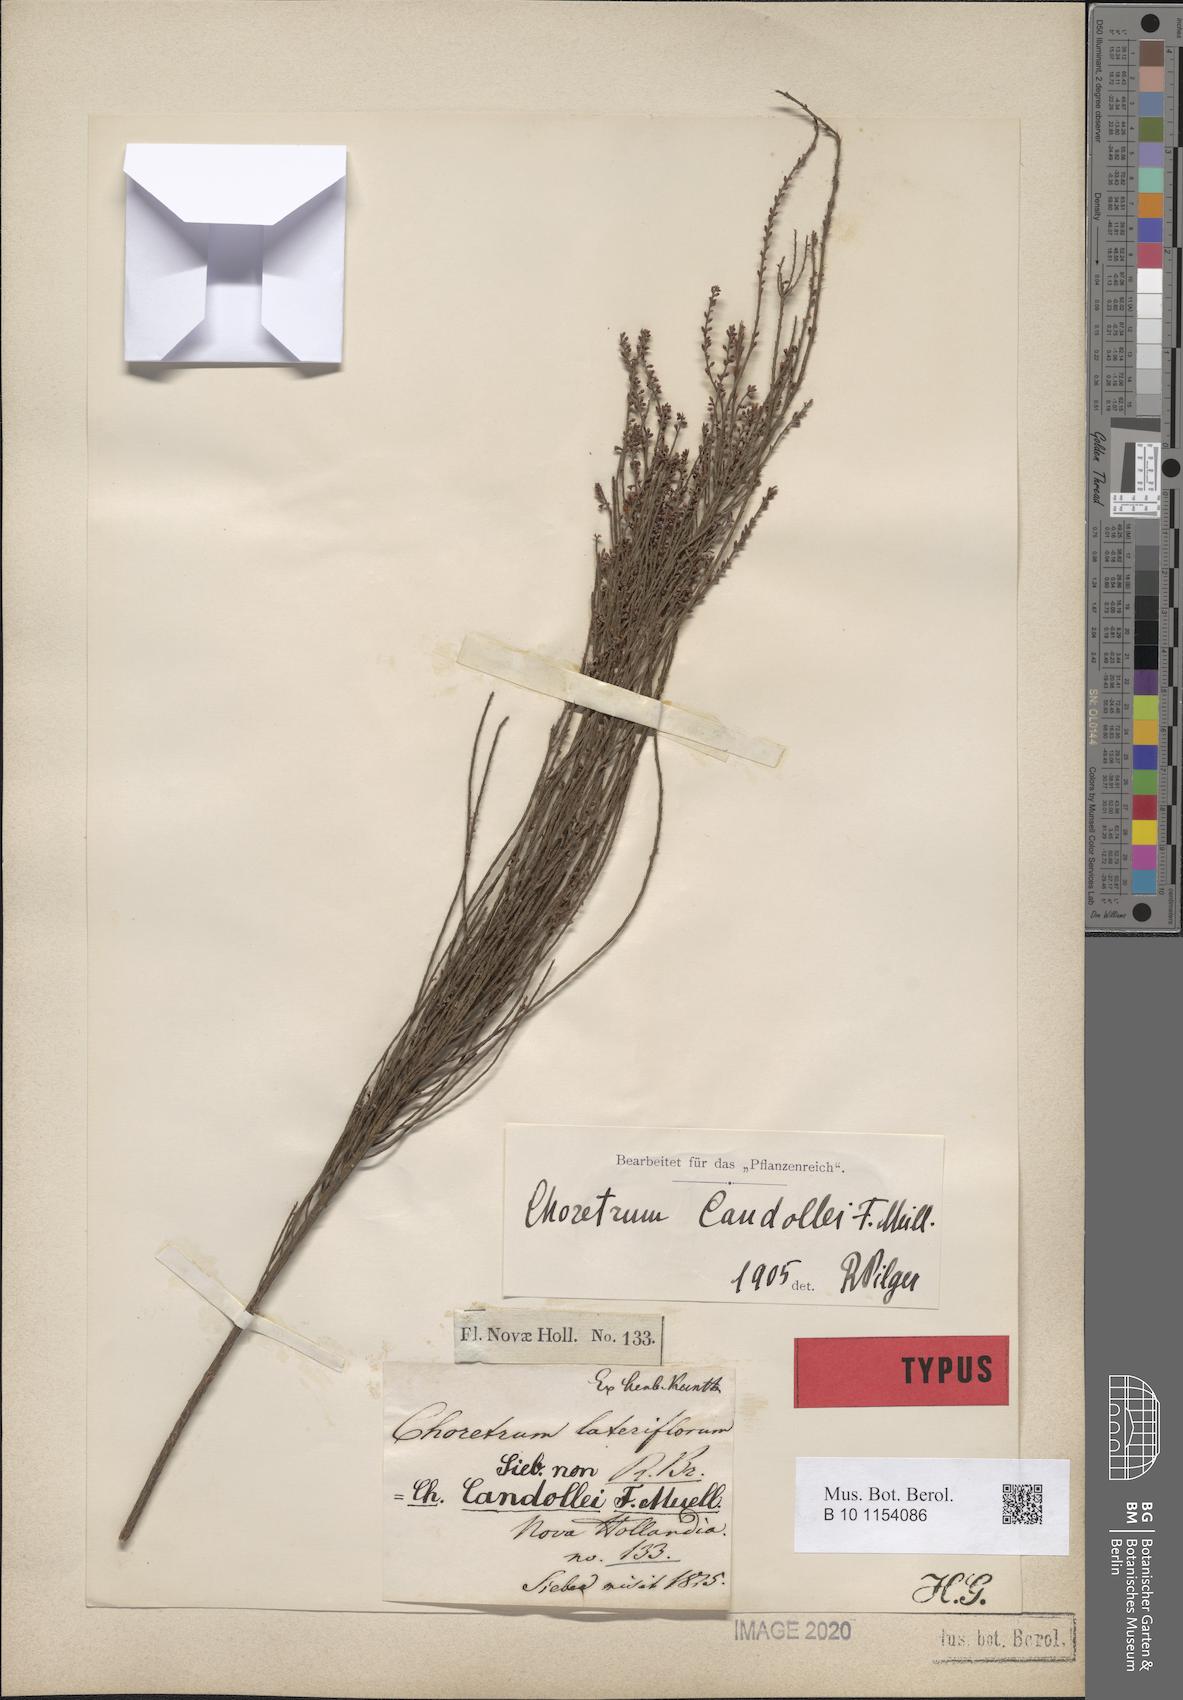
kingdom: Plantae
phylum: Tracheophyta
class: Magnoliopsida
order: Santalales
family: Amphorogynaceae
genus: Choretrum
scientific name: Choretrum candollei
